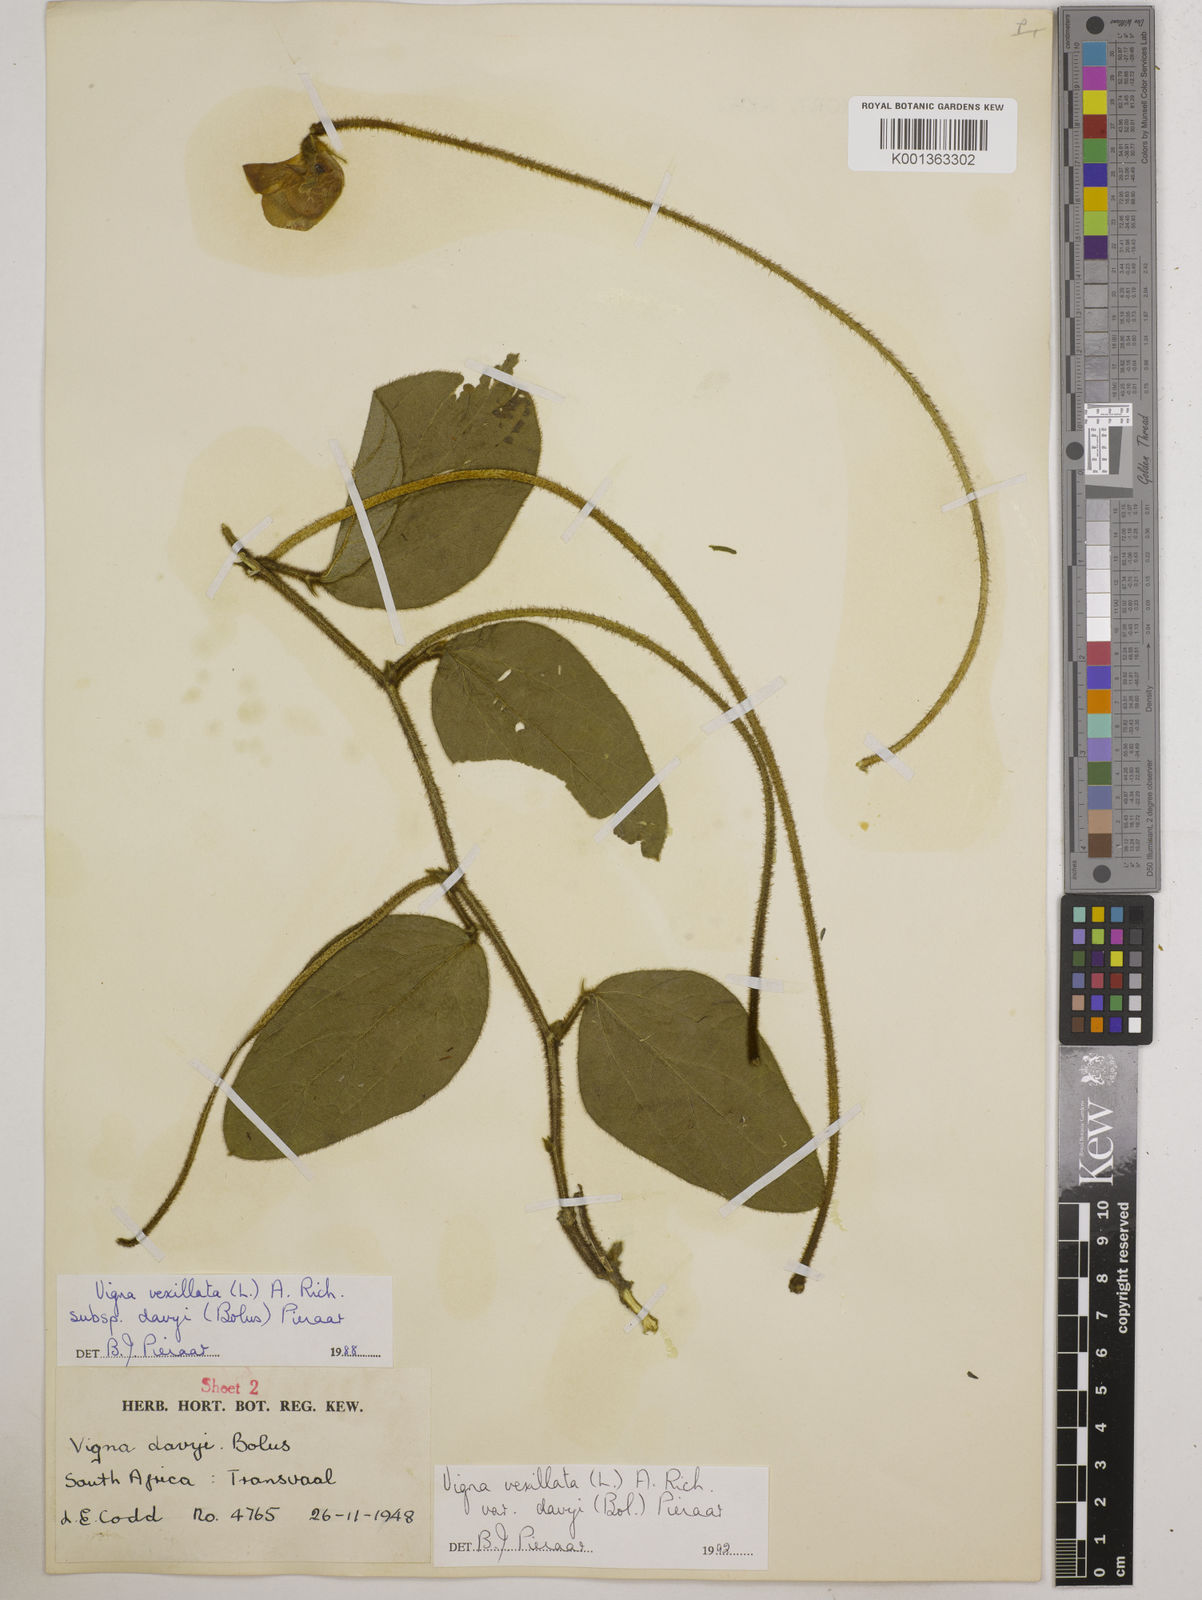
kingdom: Plantae
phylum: Tracheophyta
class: Magnoliopsida
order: Fabales
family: Fabaceae
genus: Vigna
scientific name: Vigna vexillata
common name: Zombi pea
